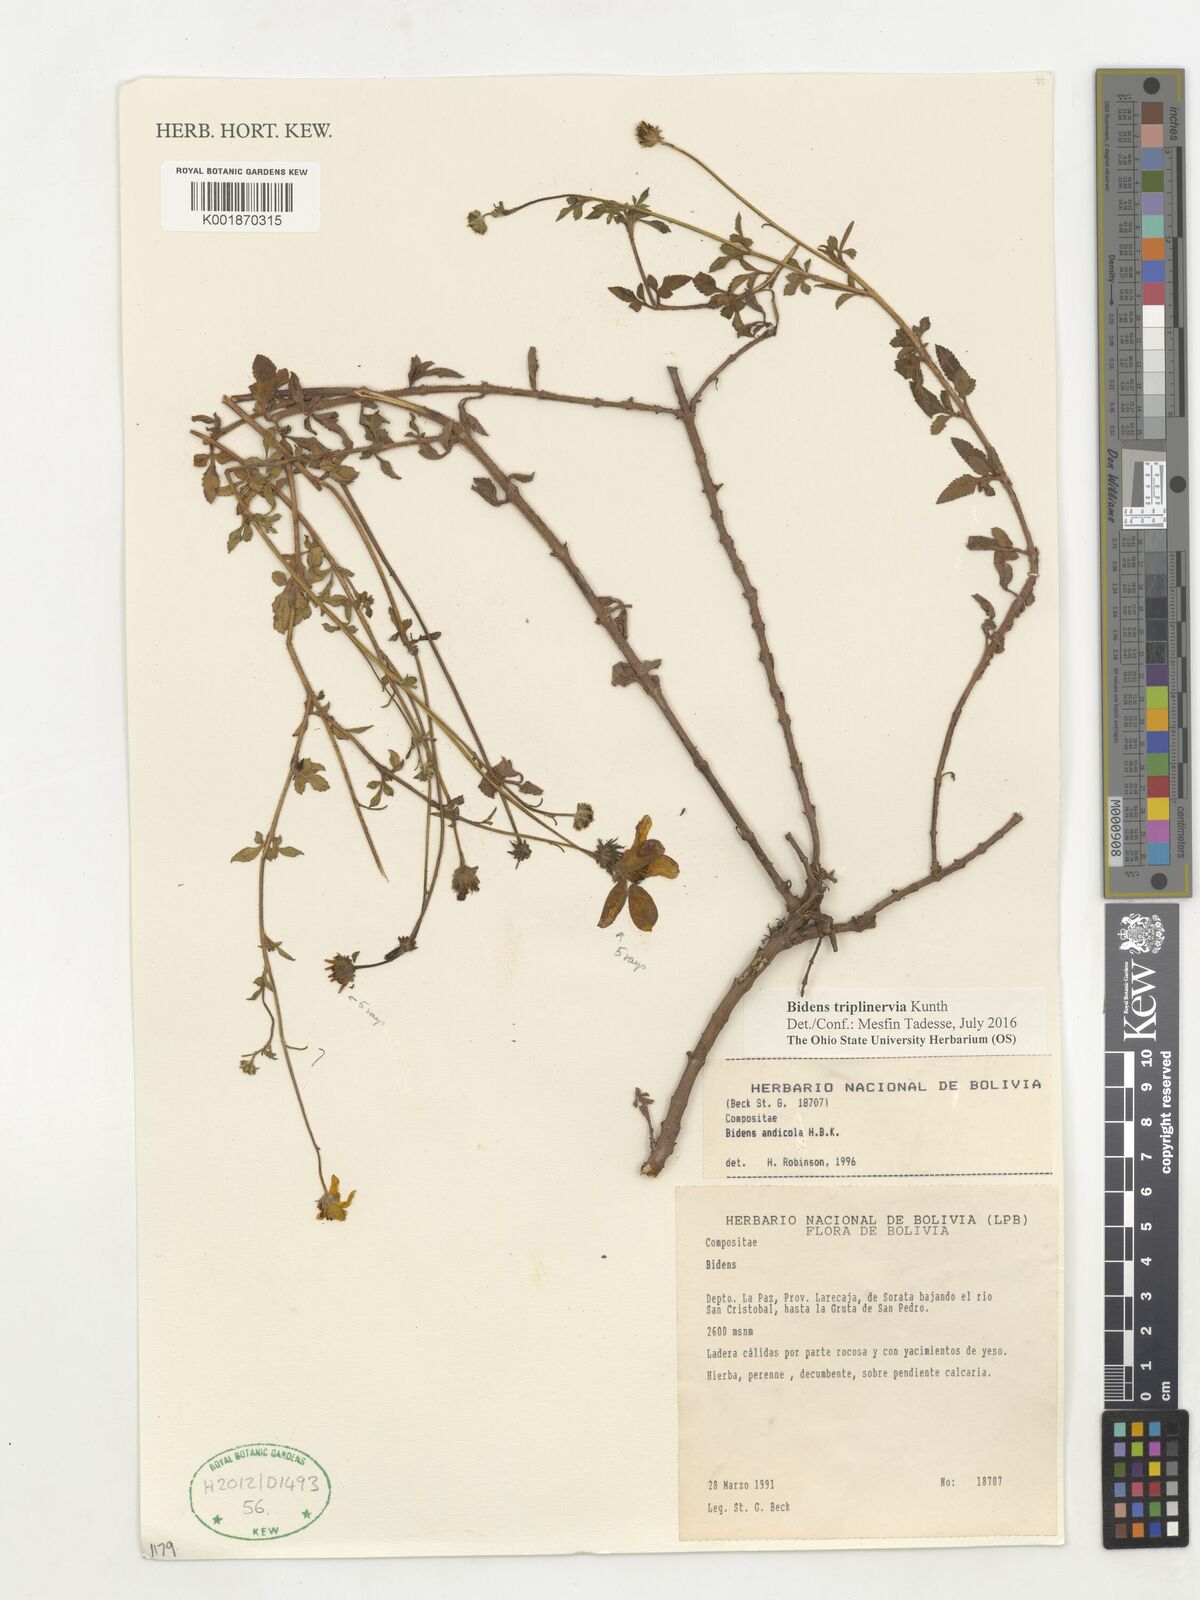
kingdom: Plantae
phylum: Tracheophyta
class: Magnoliopsida
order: Asterales
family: Asteraceae
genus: Bidens
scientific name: Bidens triplinervia
